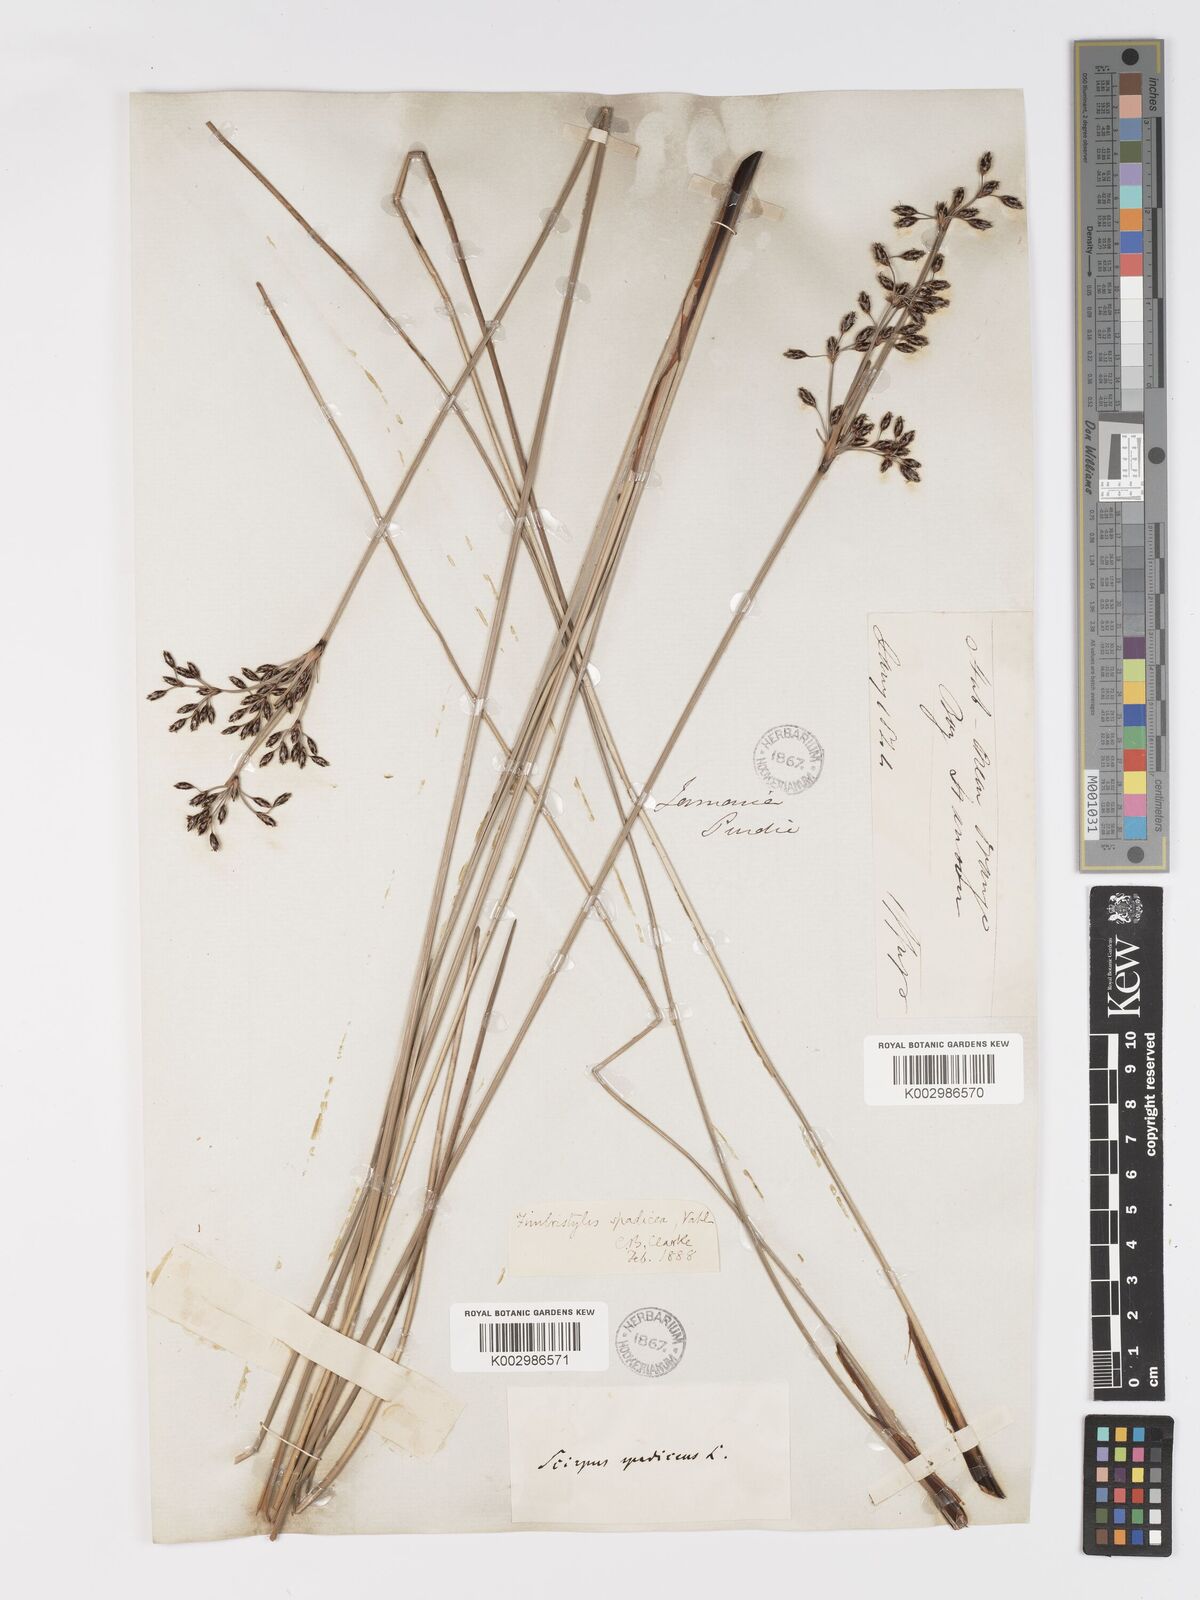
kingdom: Plantae
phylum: Tracheophyta
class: Liliopsida
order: Poales
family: Cyperaceae
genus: Fimbristylis
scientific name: Fimbristylis spadicea
